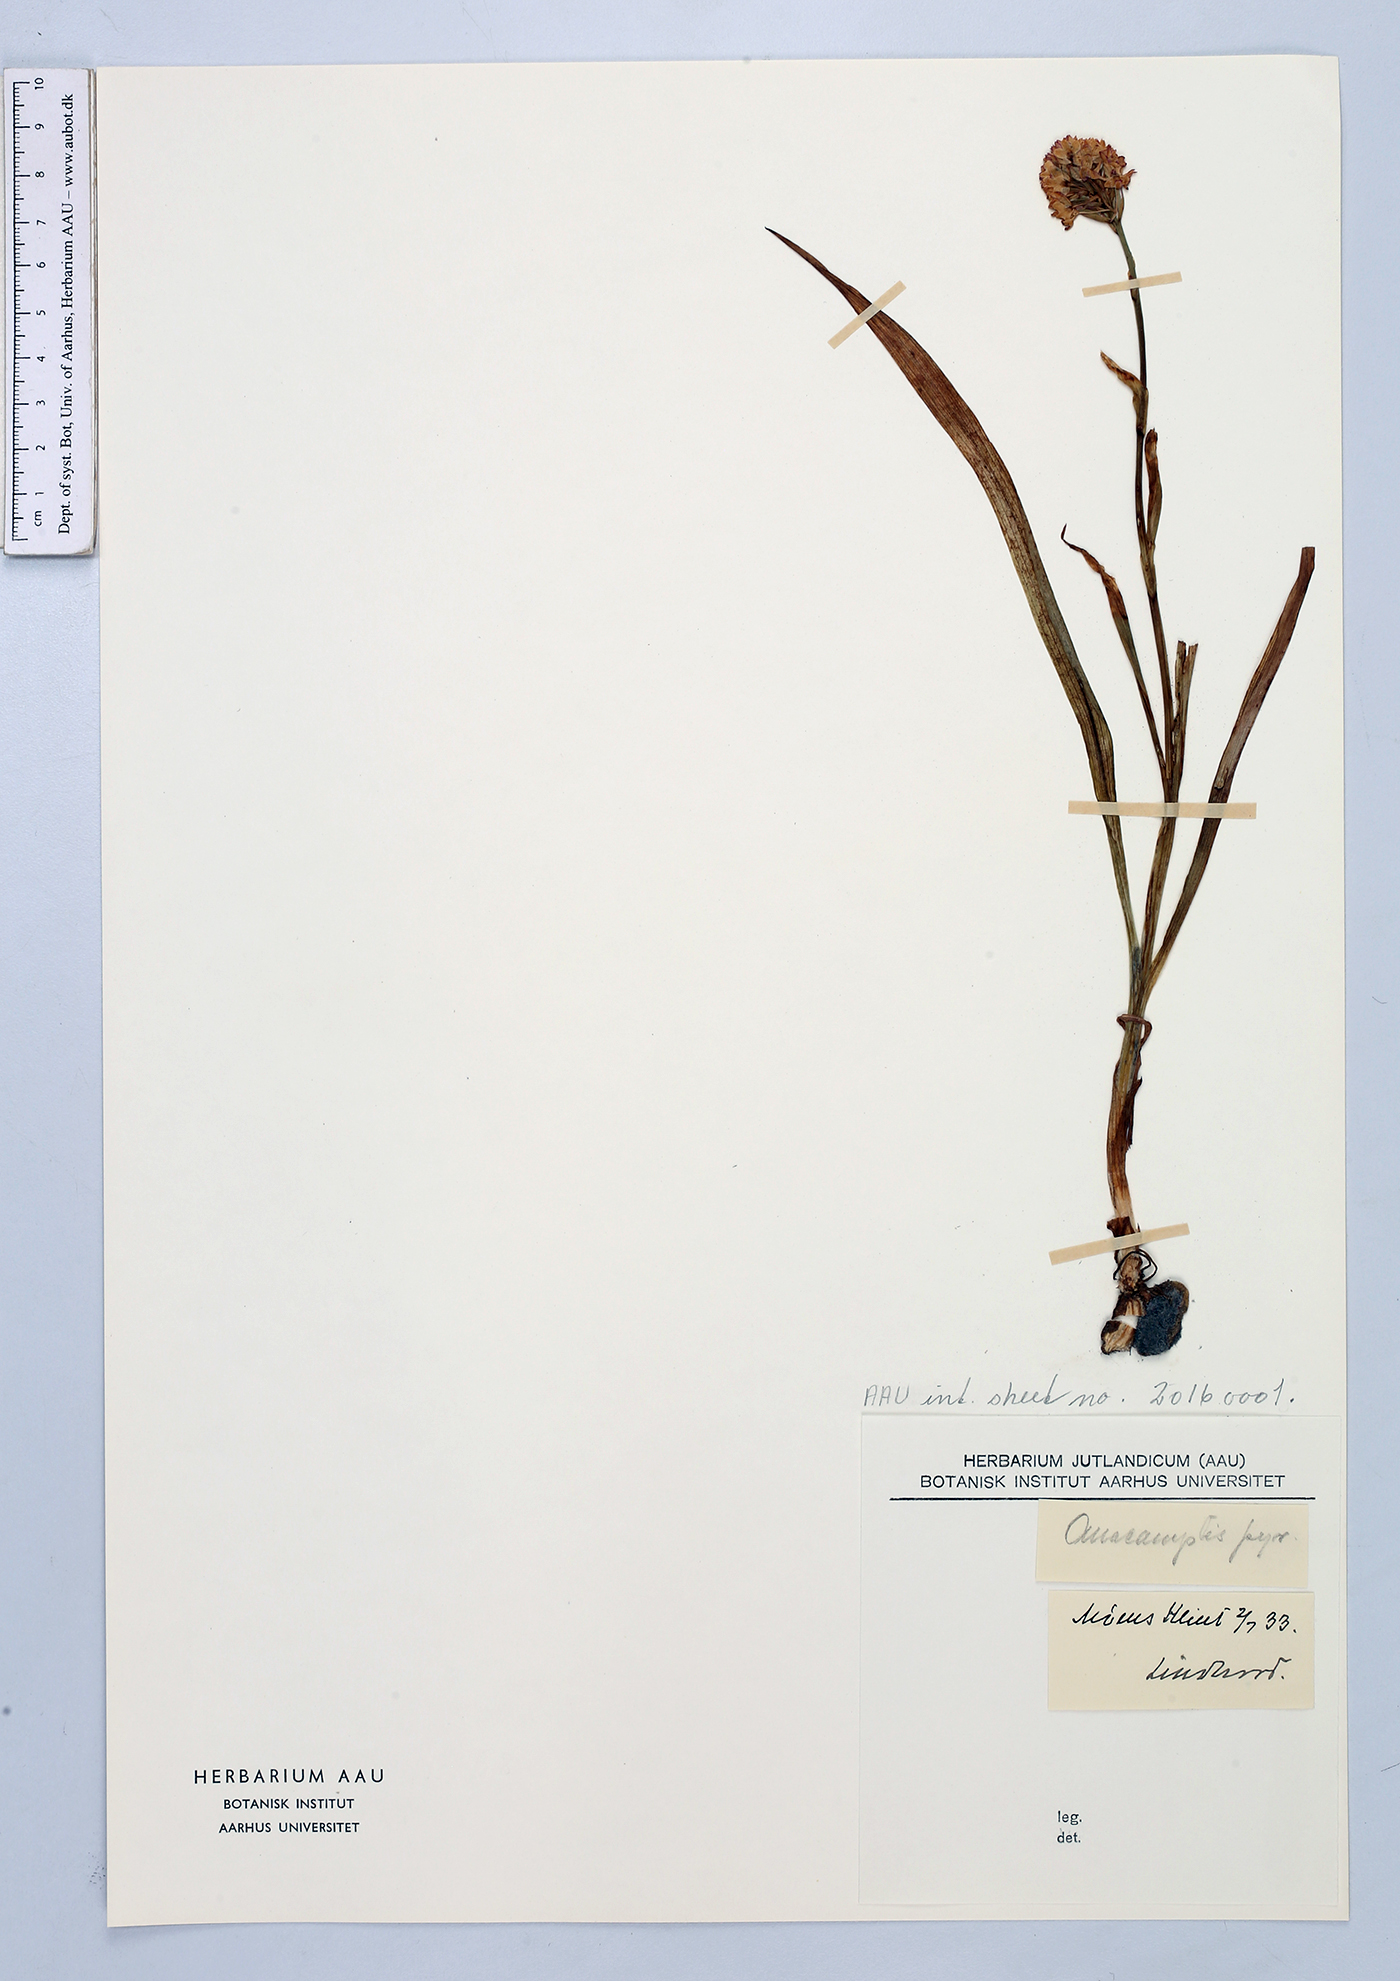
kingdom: Plantae
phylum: Tracheophyta
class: Liliopsida
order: Asparagales
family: Orchidaceae
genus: Anacamptis
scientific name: Anacamptis pyramidalis
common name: Pyramidal orchid
